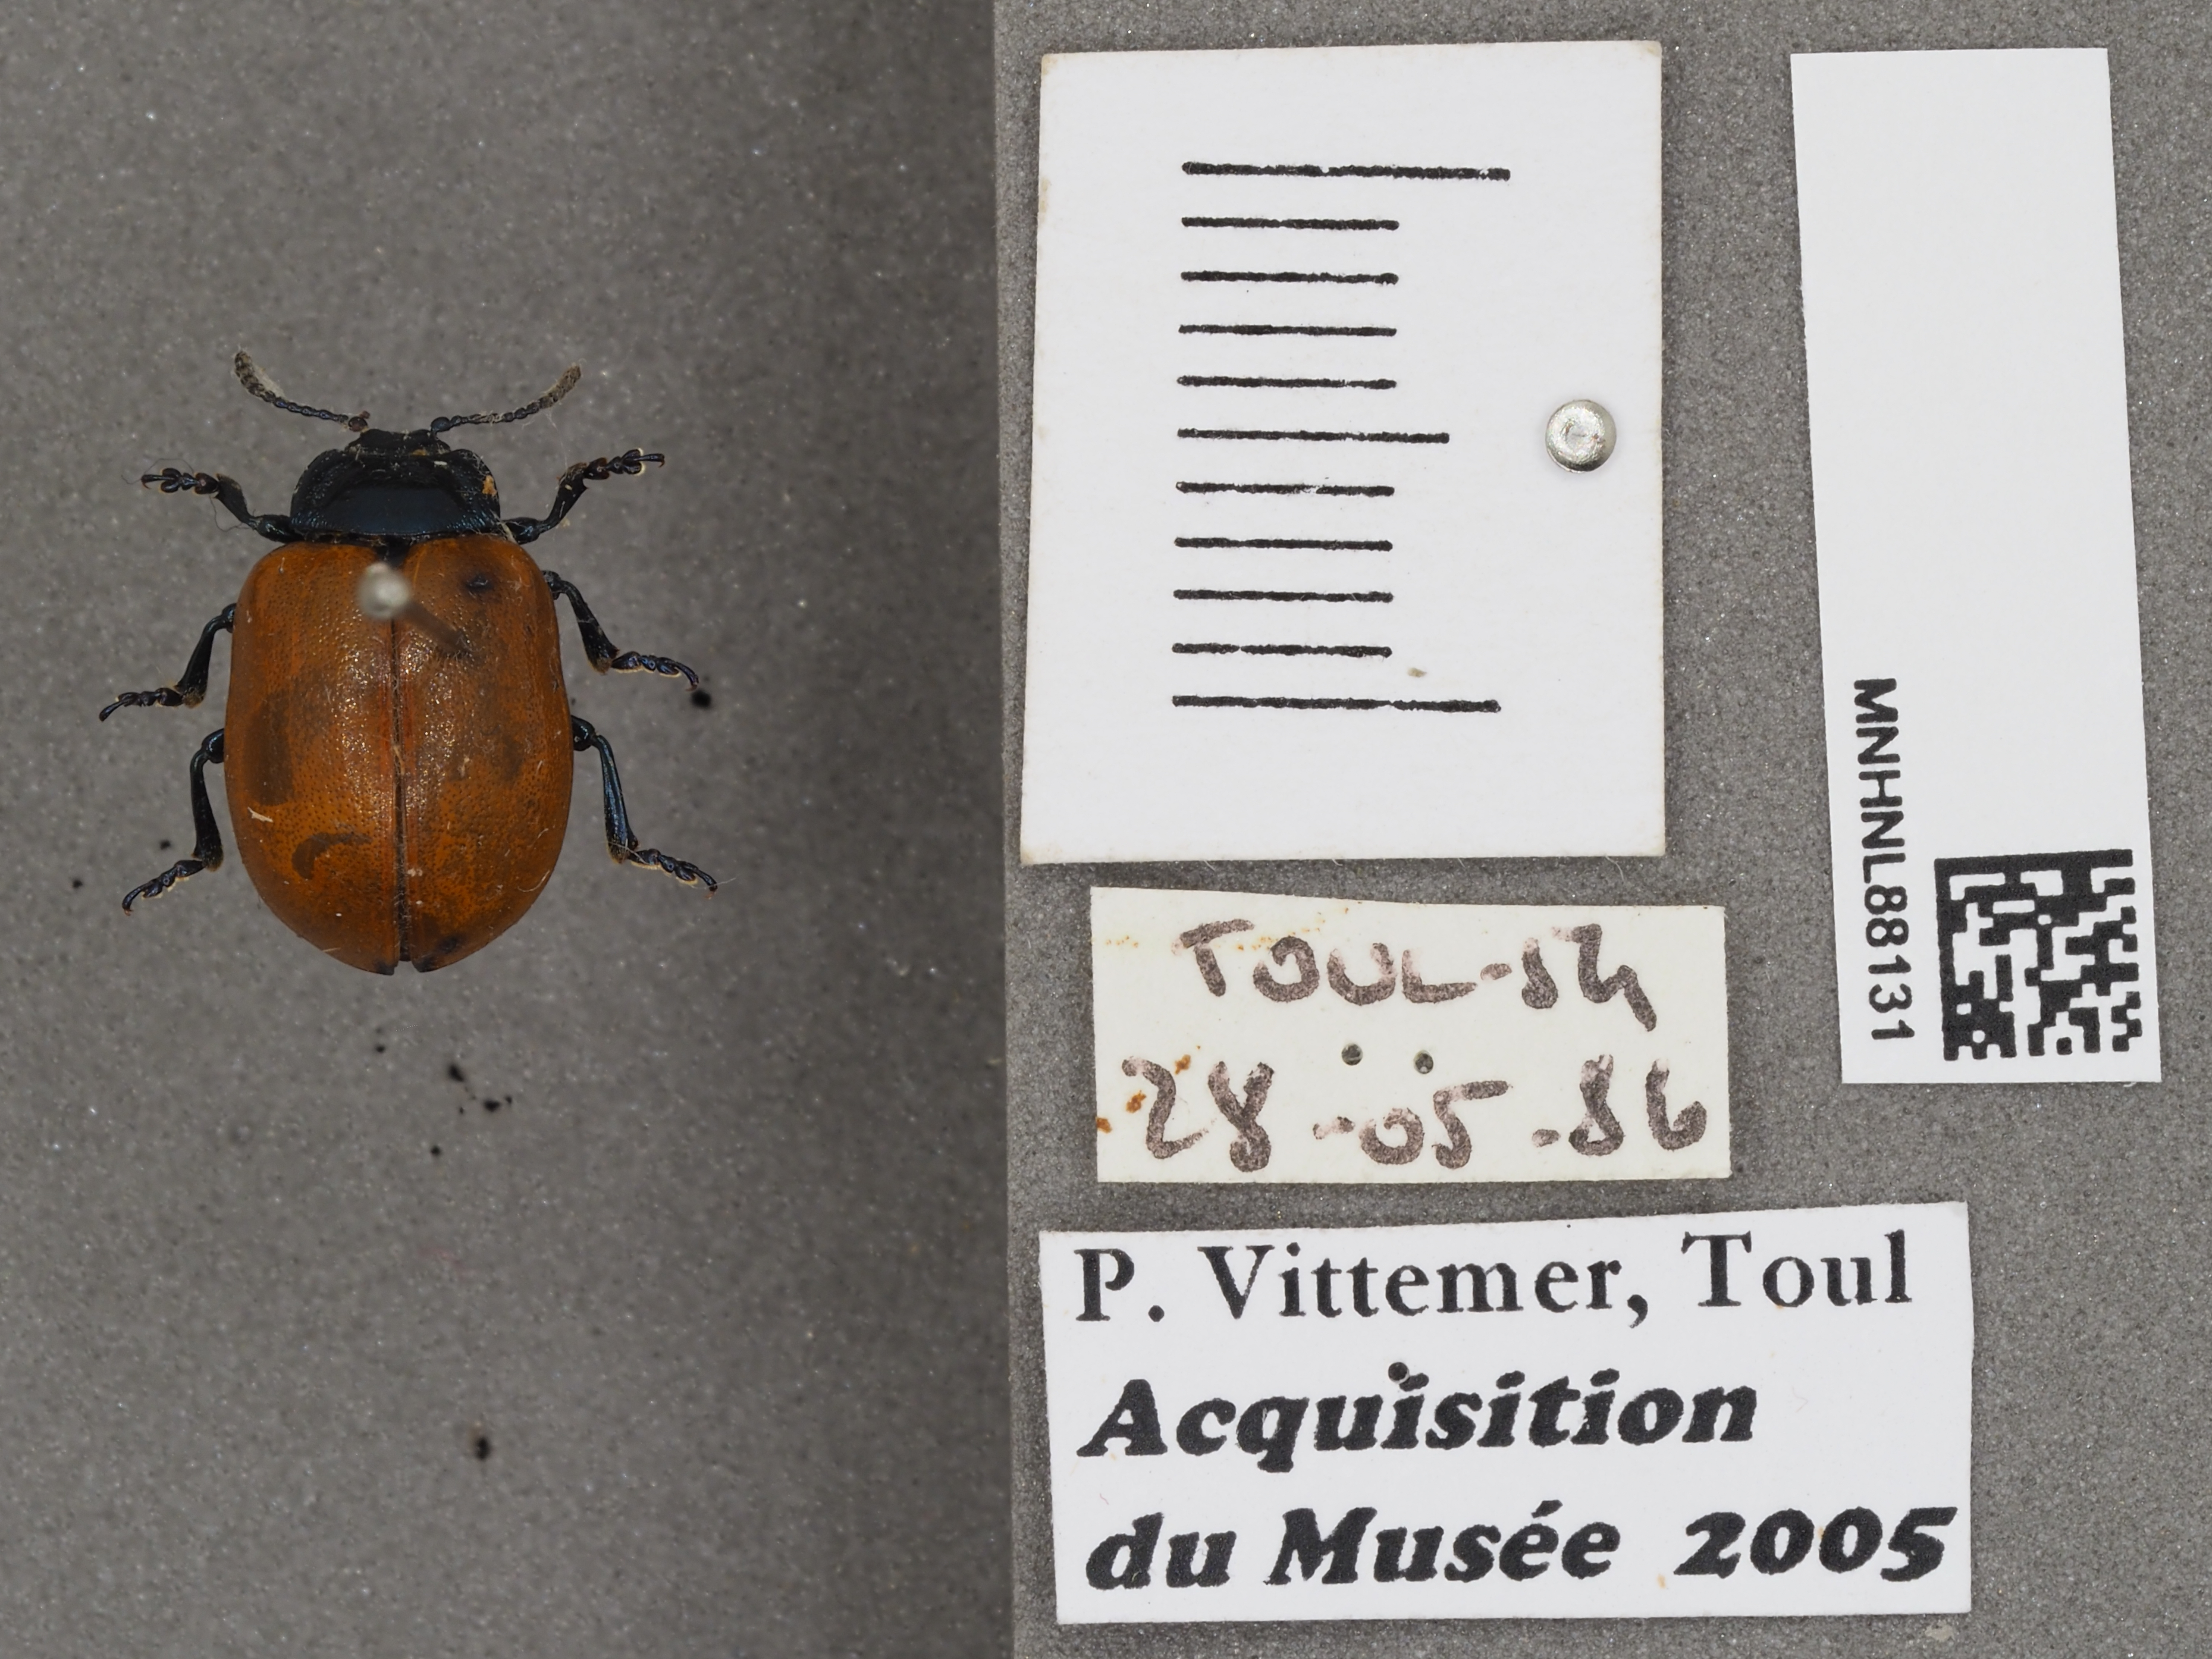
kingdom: Animalia
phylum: Arthropoda
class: Insecta
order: Coleoptera
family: Chrysomelidae
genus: Chrysomela
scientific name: Chrysomela populi
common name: Red poplar leaf beetle
